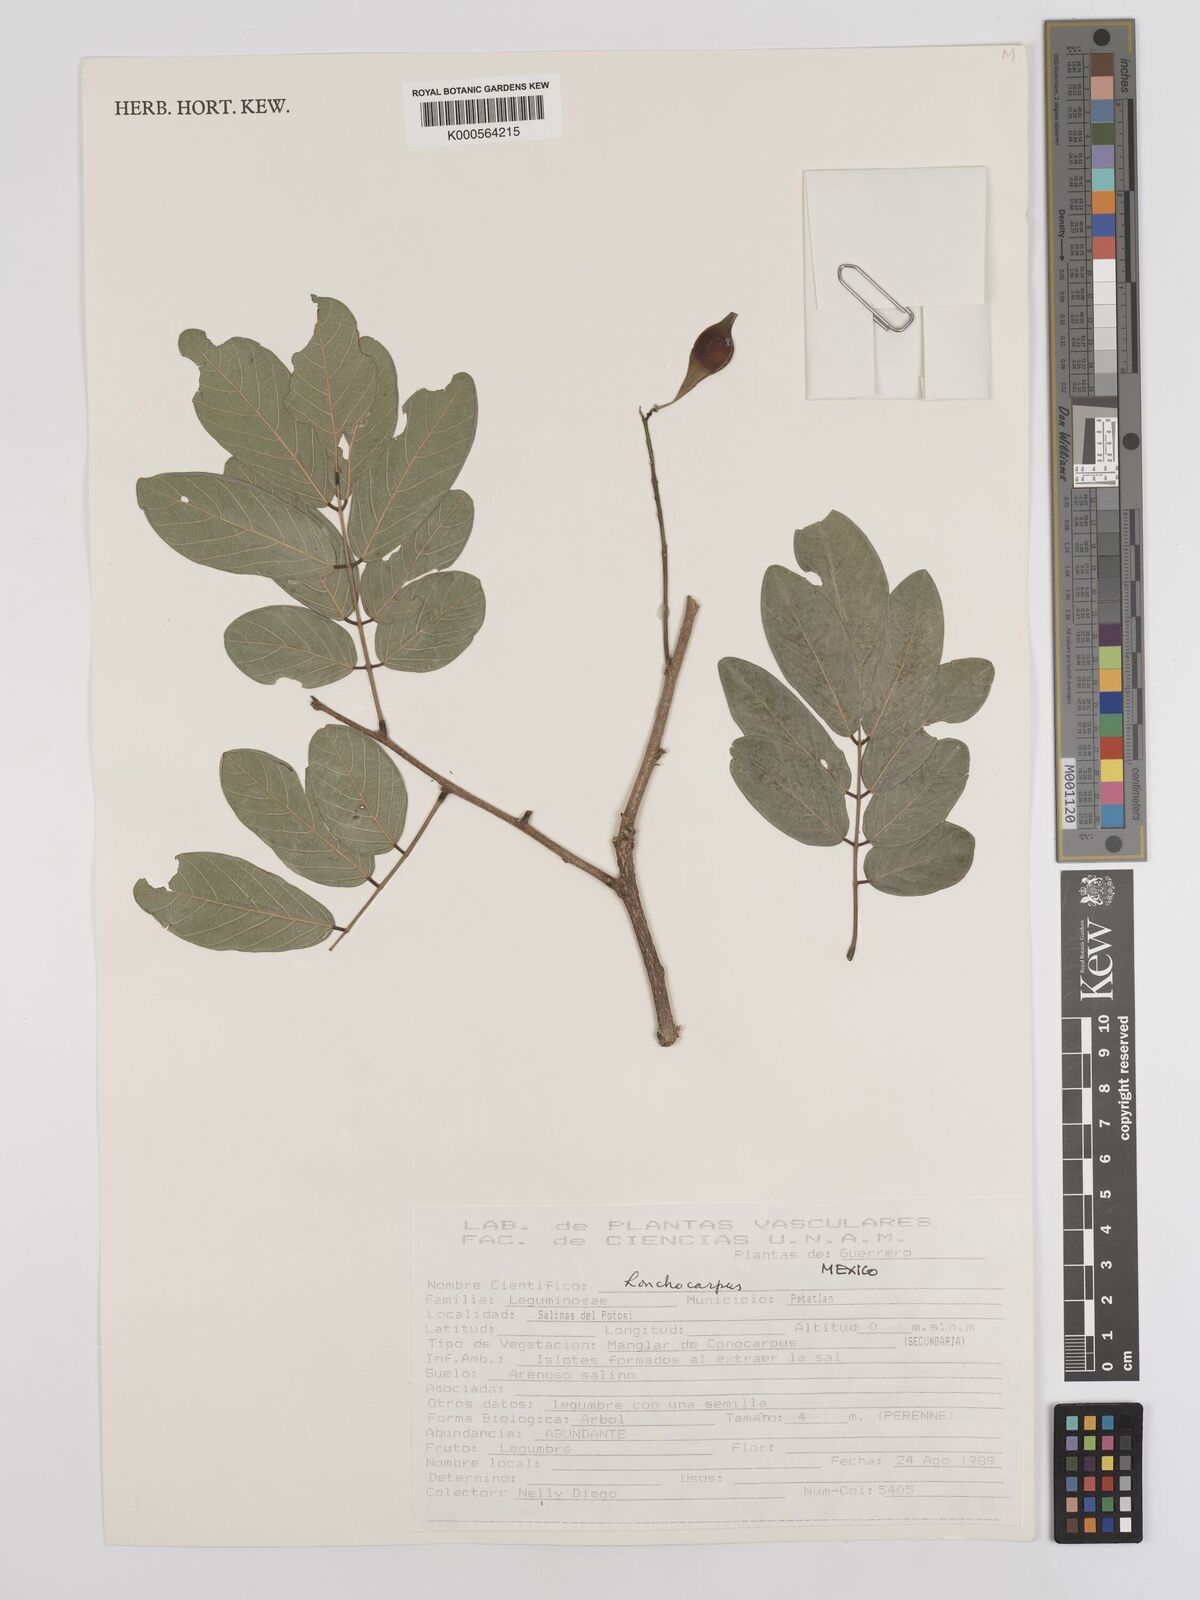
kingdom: Plantae
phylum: Tracheophyta
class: Magnoliopsida
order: Fabales
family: Fabaceae
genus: Lonchocarpus
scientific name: Lonchocarpus
